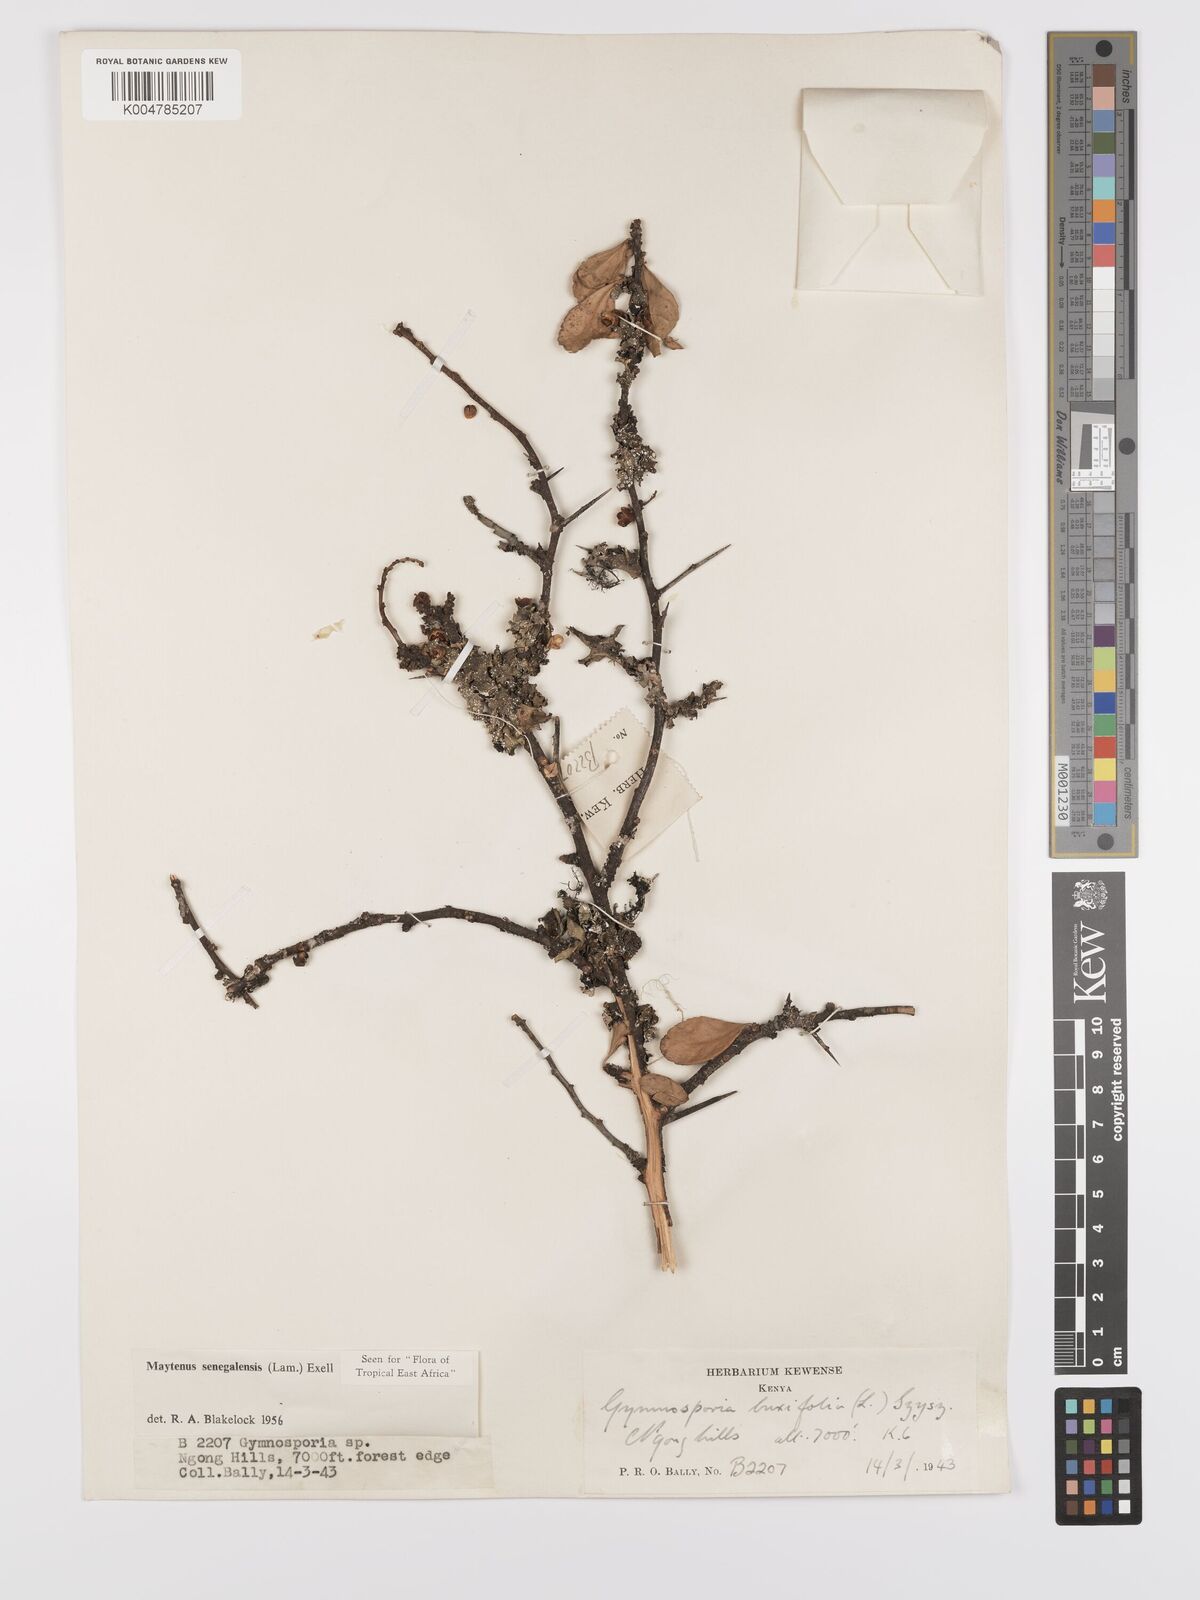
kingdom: Plantae
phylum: Tracheophyta
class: Magnoliopsida
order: Celastrales
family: Celastraceae
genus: Gymnosporia
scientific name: Gymnosporia heterophylla
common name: Angle-stem spikethorn
